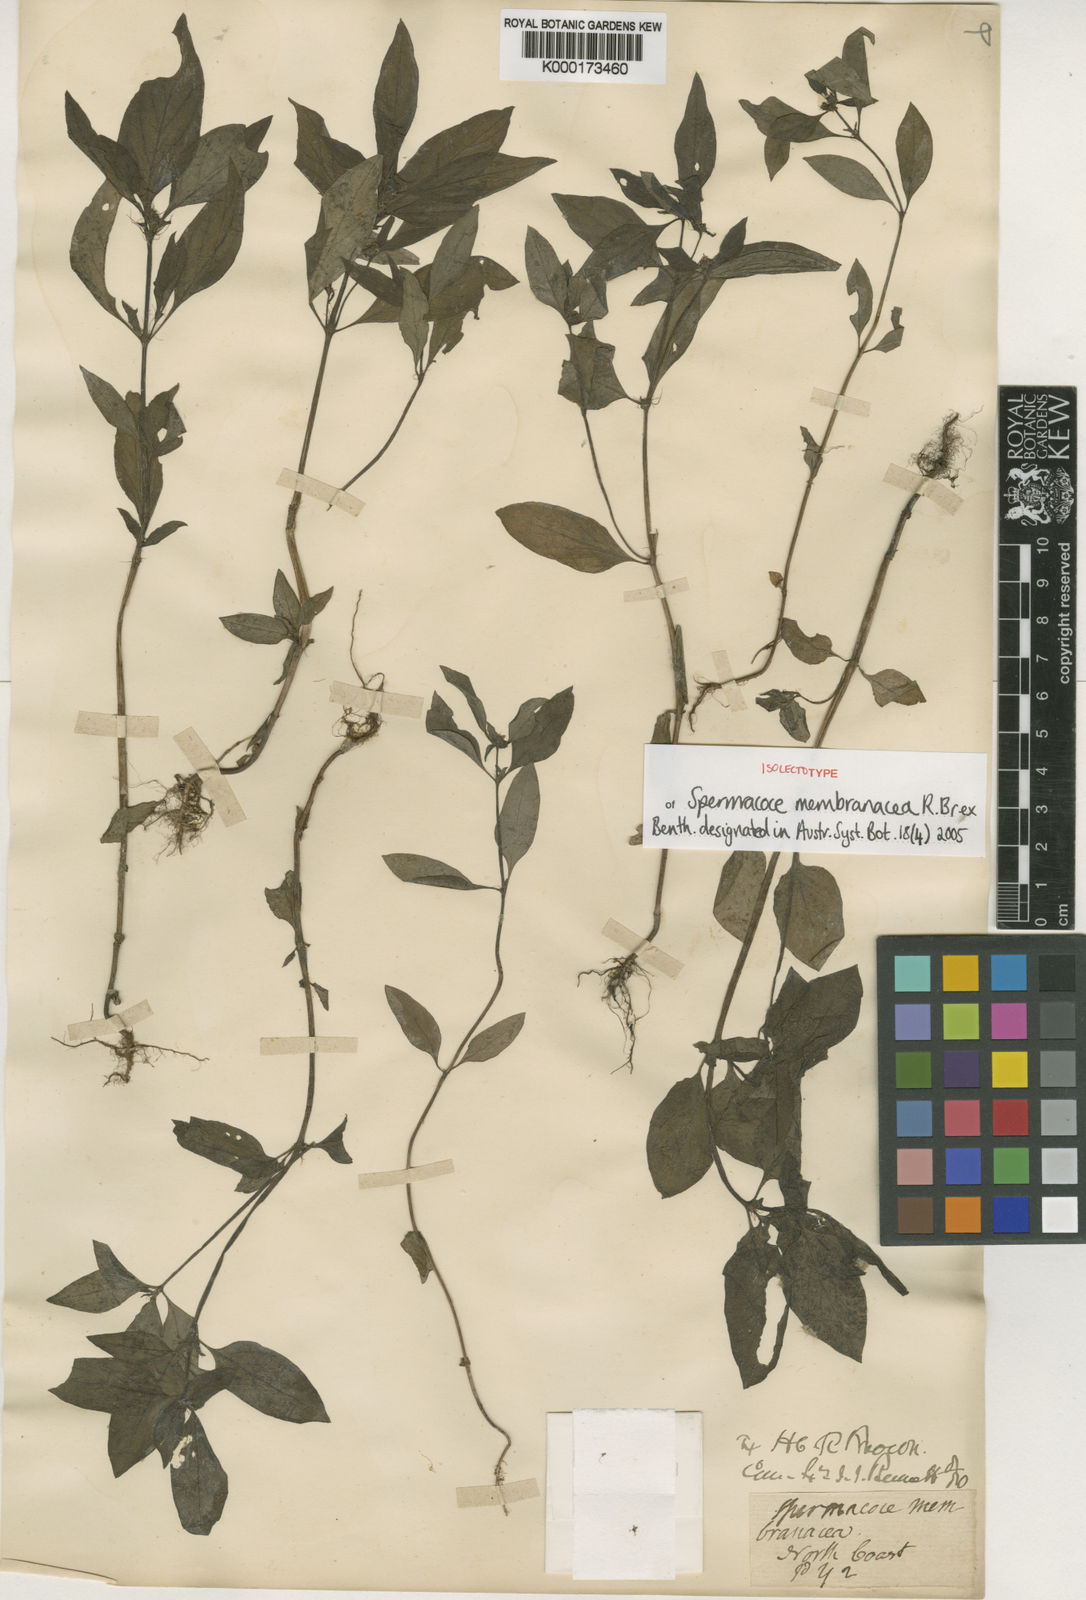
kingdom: Plantae
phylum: Tracheophyta
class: Magnoliopsida
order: Gentianales
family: Rubiaceae
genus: Spermacoce
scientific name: Spermacoce membranacea
